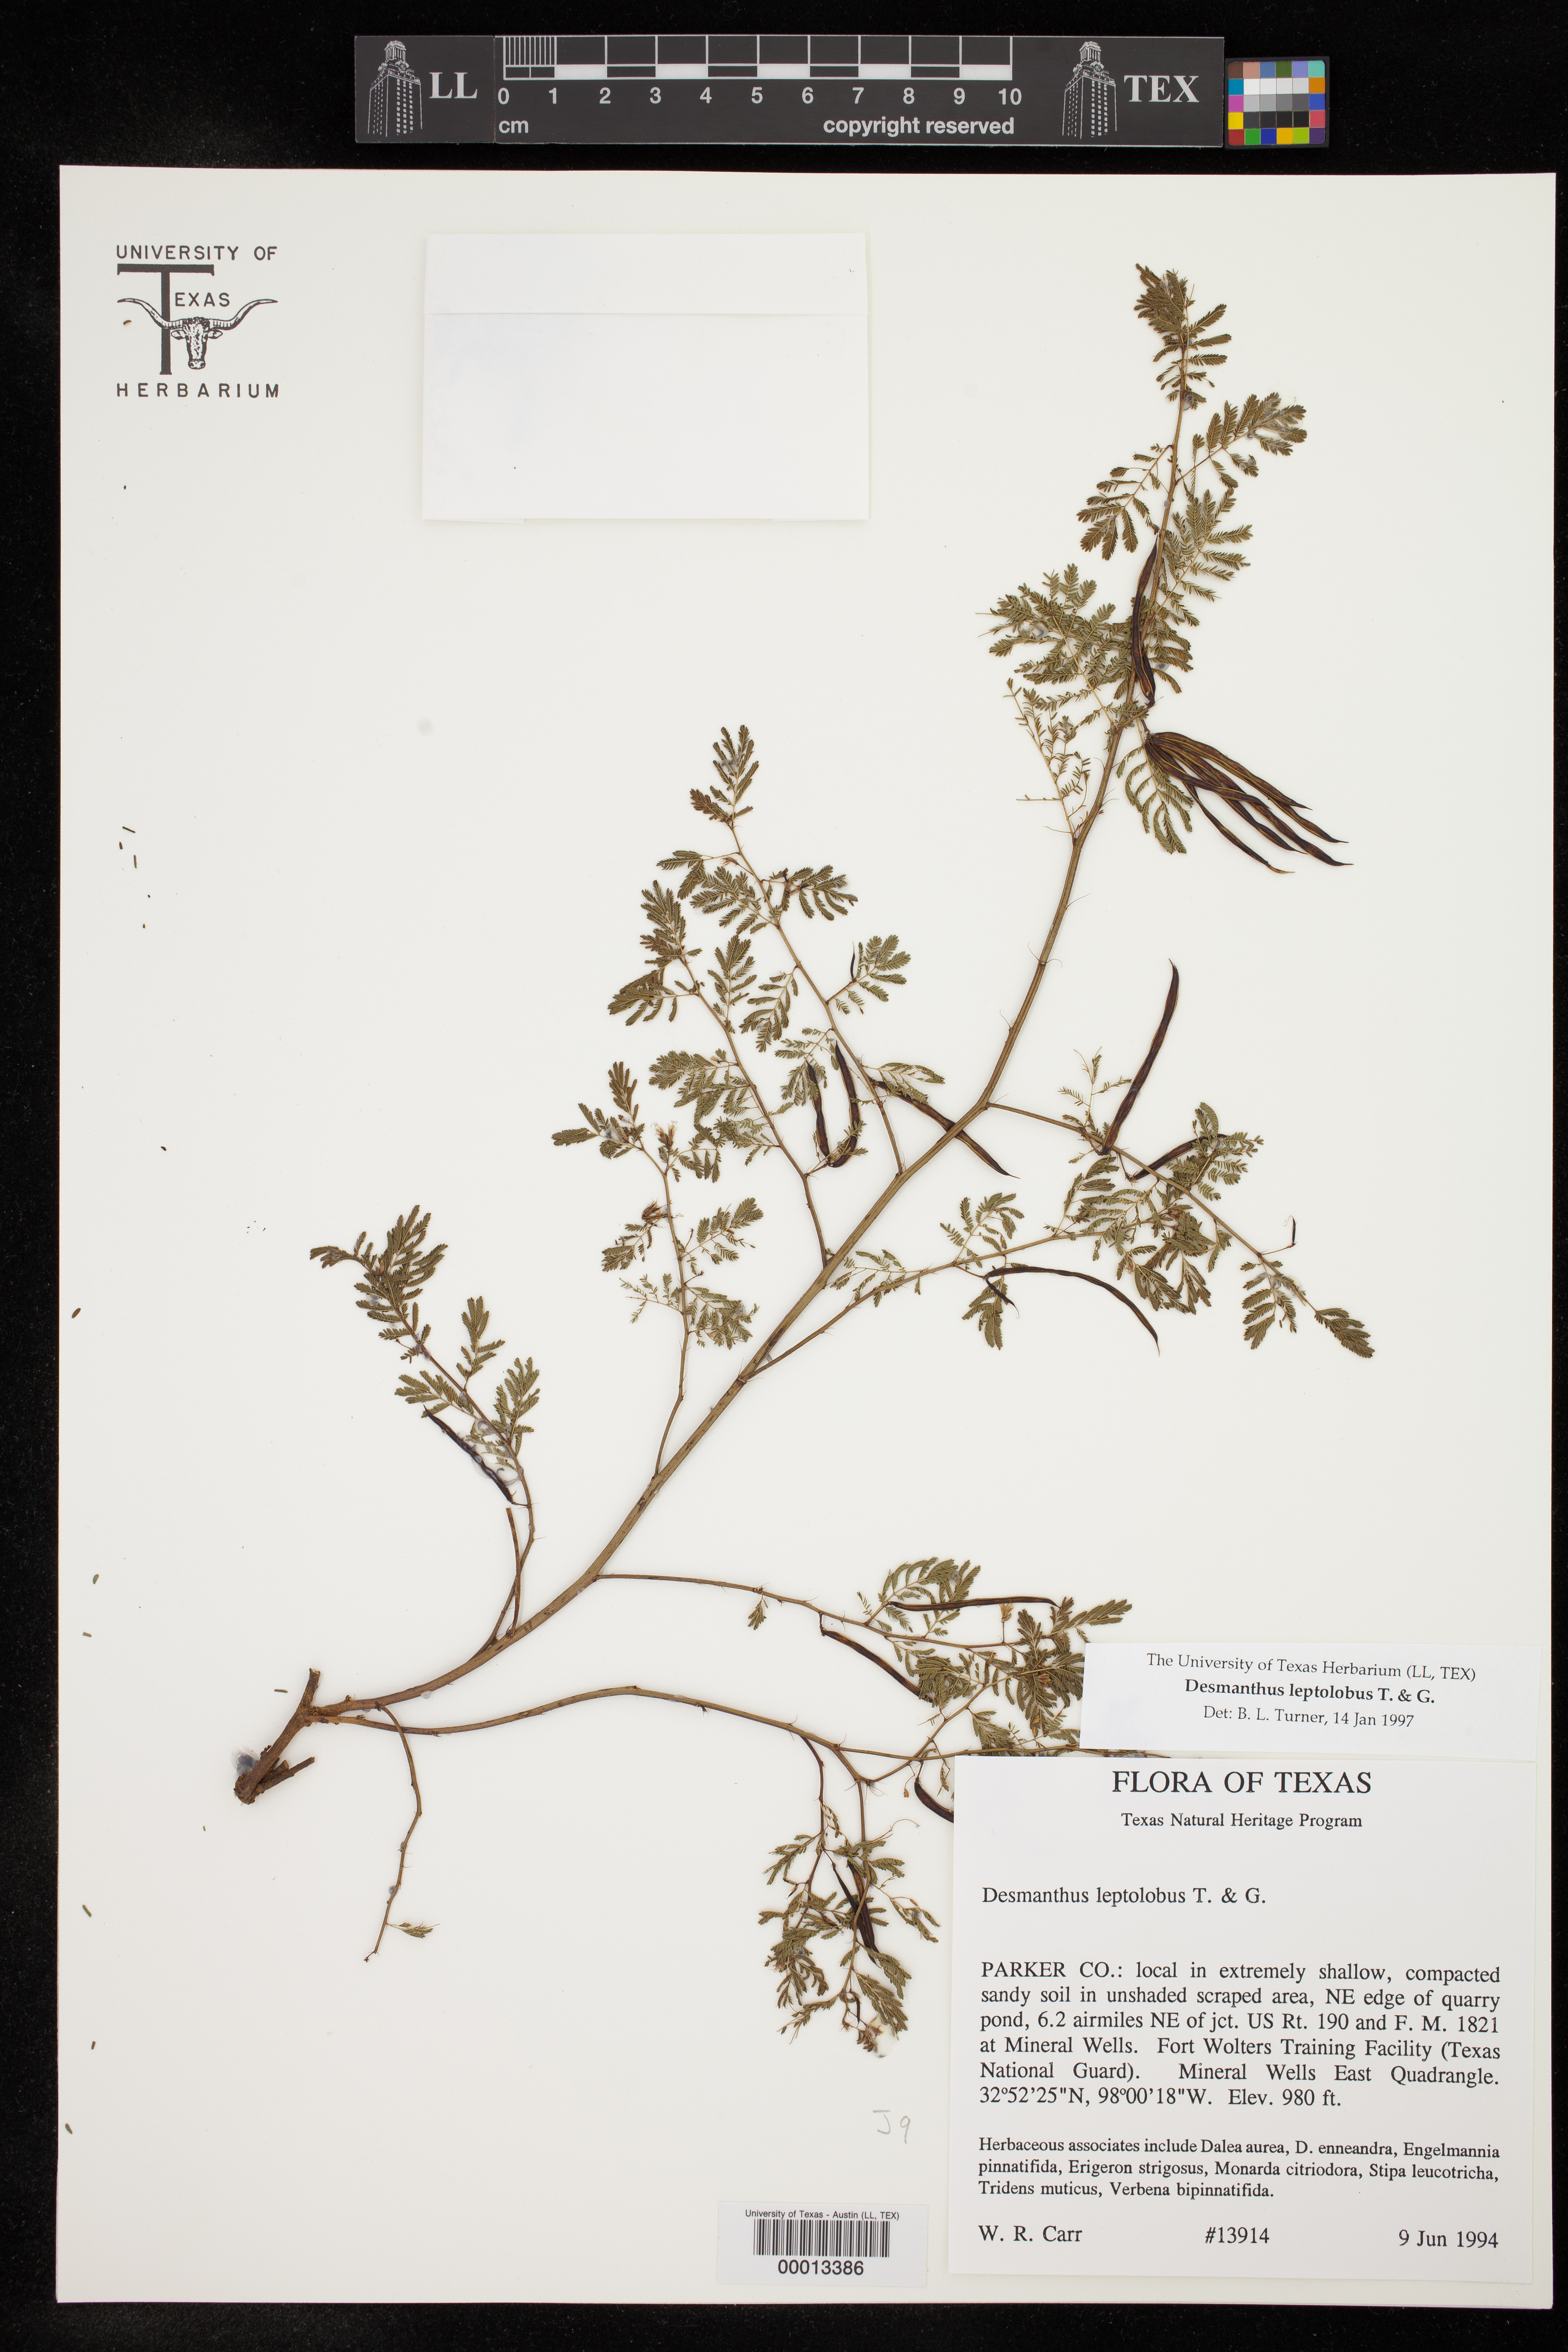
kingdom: Plantae
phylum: Tracheophyta
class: Magnoliopsida
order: Fabales
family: Fabaceae
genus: Desmanthus
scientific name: Desmanthus leptolobus
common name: Prairie-mimosa
